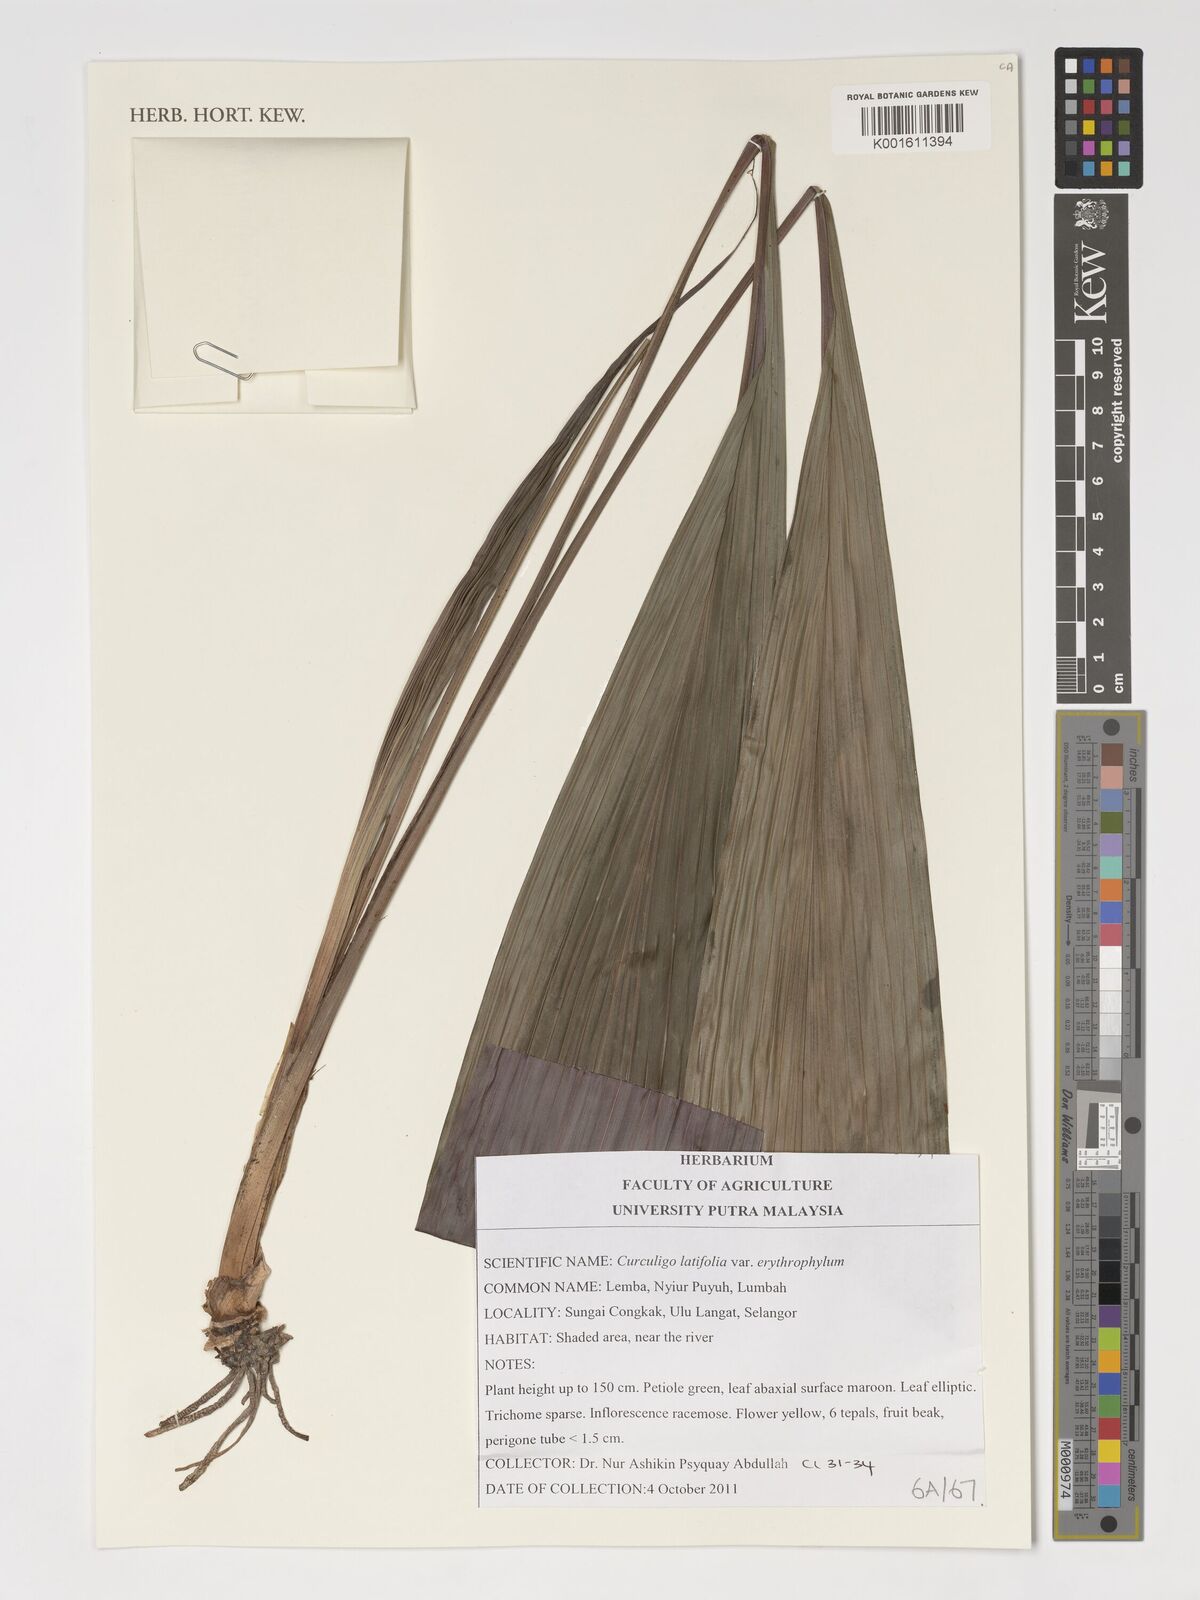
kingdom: Plantae
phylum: Tracheophyta
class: Liliopsida
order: Asparagales
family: Hypoxidaceae
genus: Curculigo
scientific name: Curculigo latifolia
